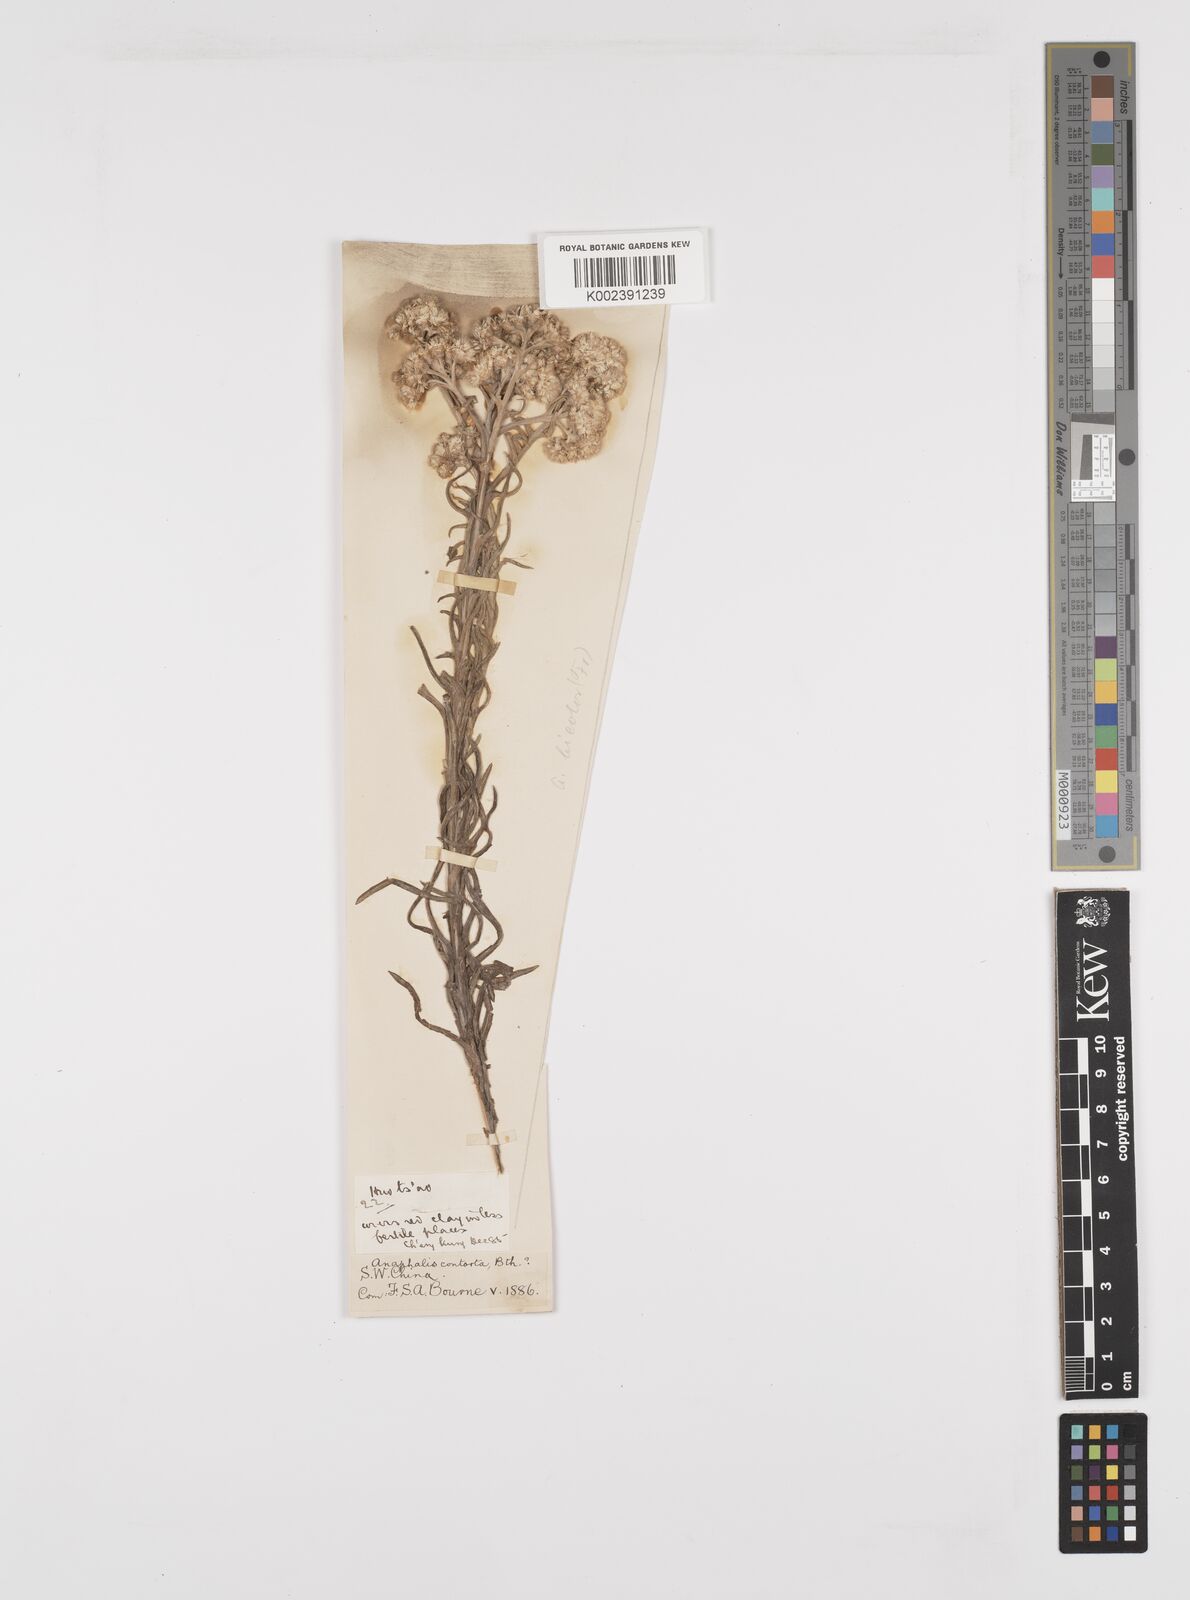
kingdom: Plantae
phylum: Tracheophyta
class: Magnoliopsida
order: Asterales
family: Asteraceae
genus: Anaphalis
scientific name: Anaphalis bicolor
